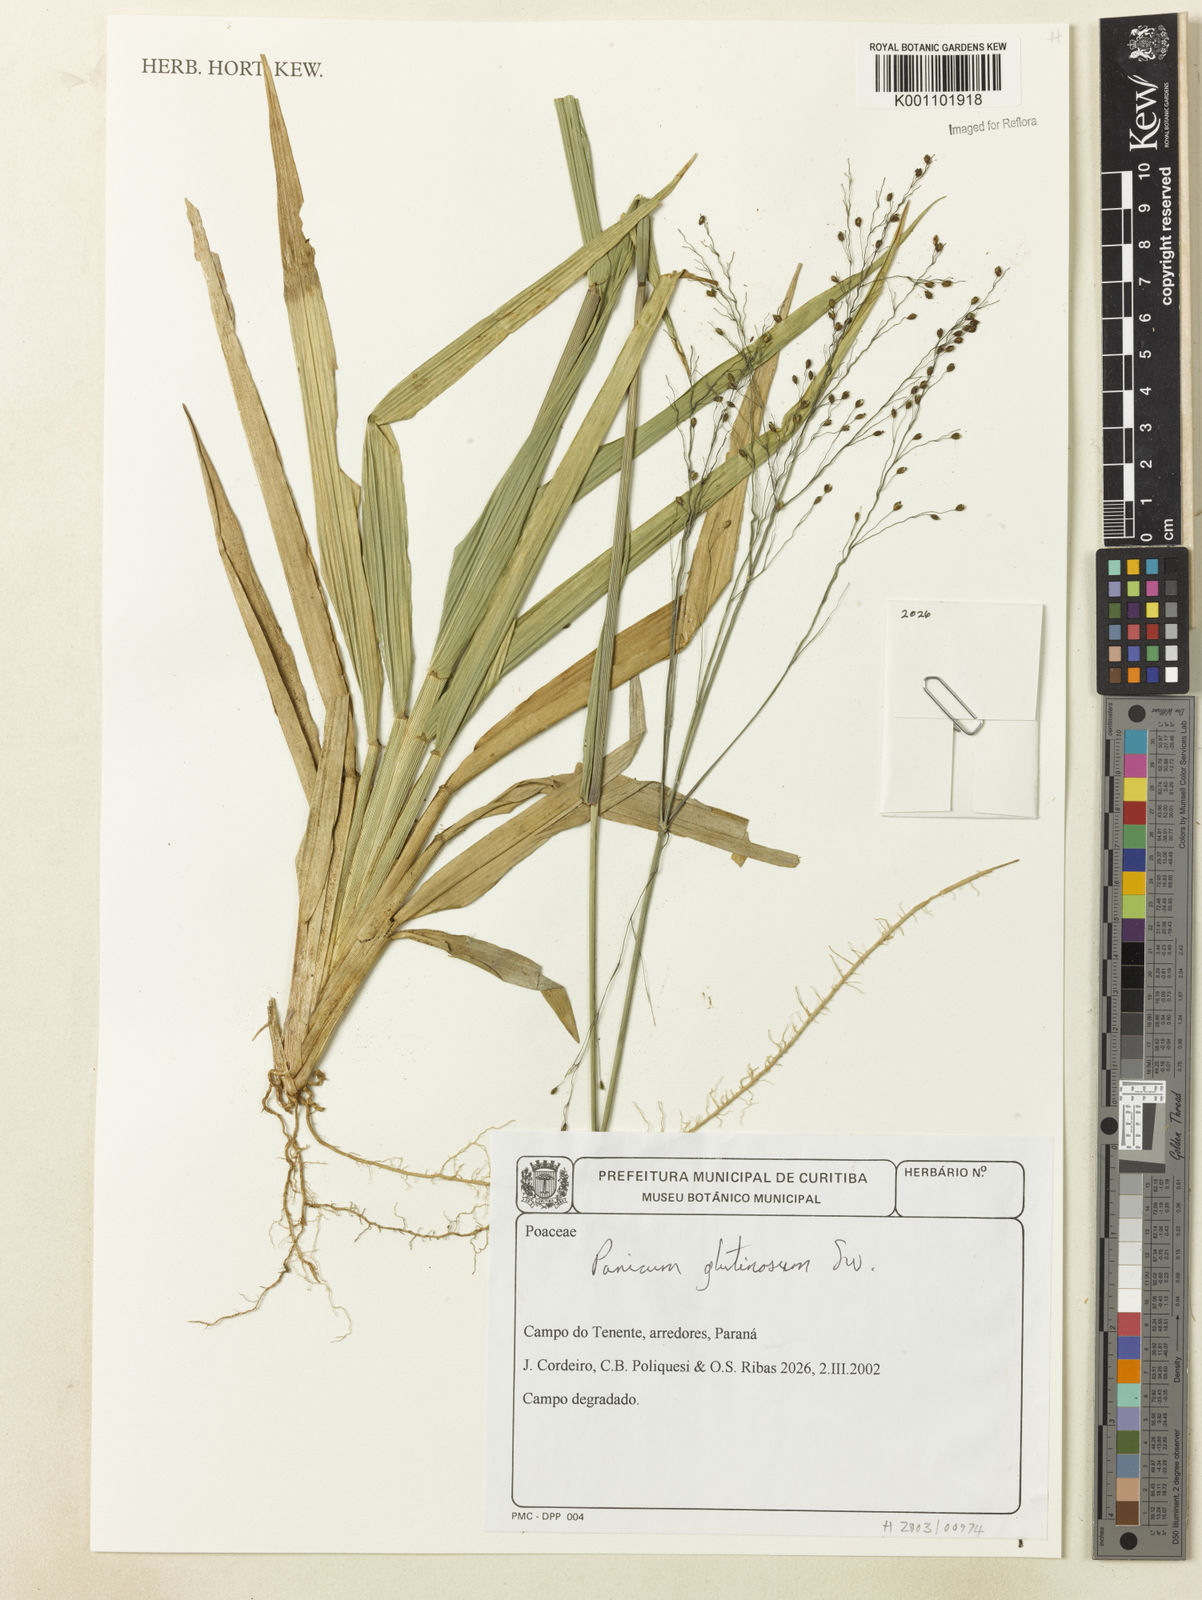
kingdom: Plantae
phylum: Tracheophyta
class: Liliopsida
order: Poales
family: Poaceae
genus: Homolepis
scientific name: Homolepis glutinosa
